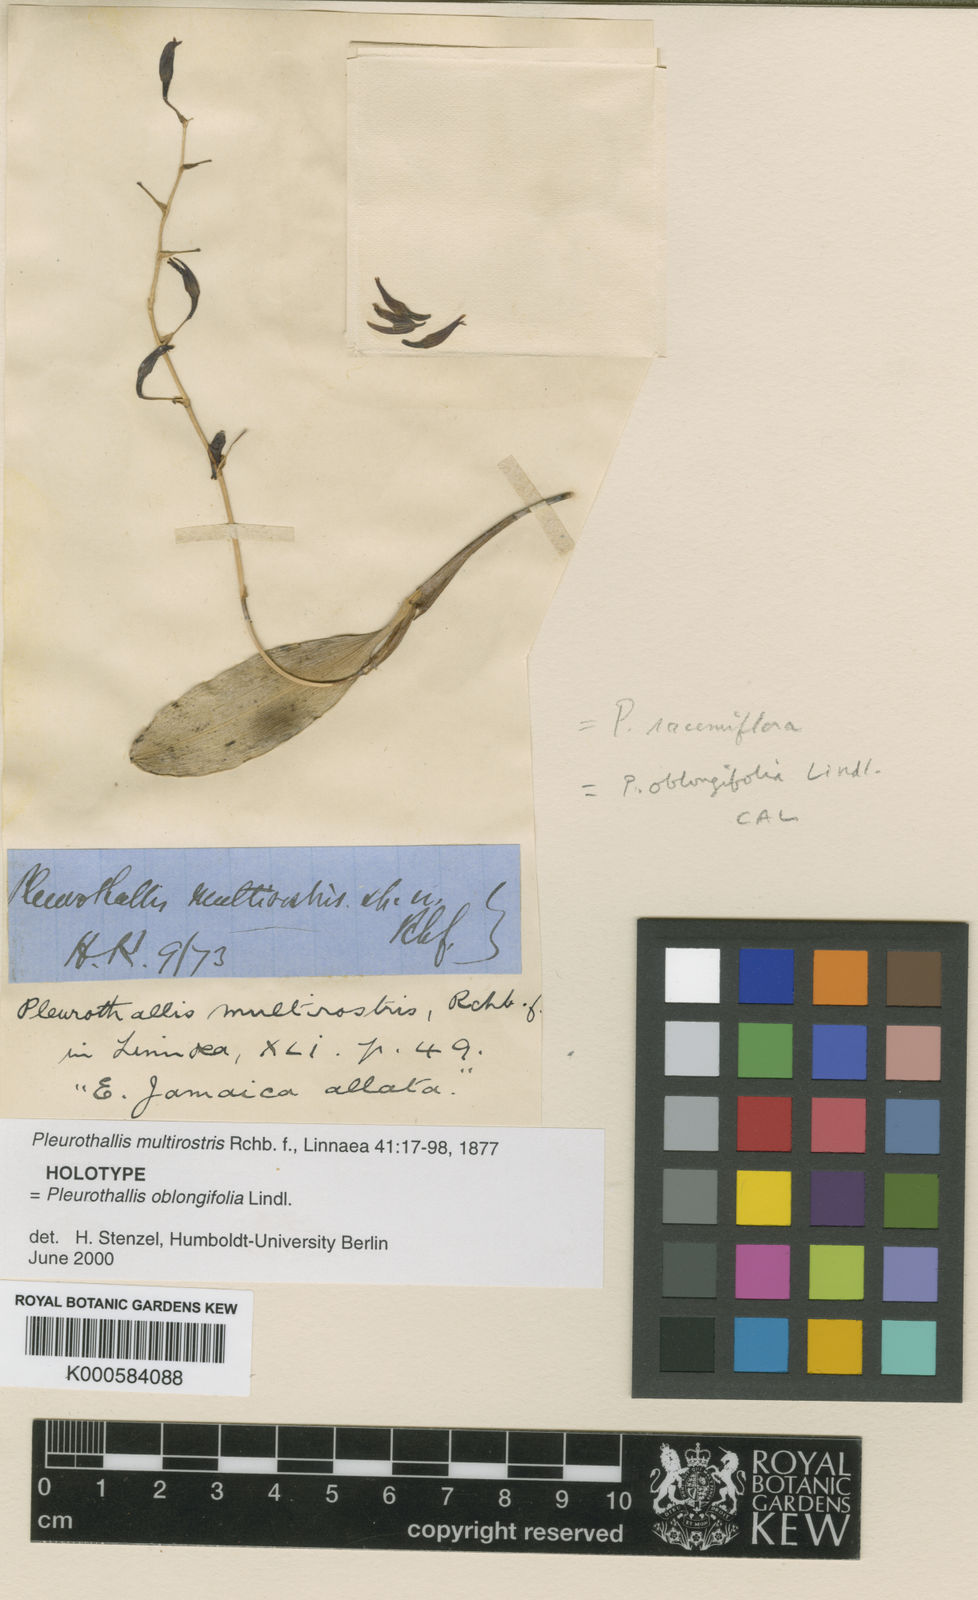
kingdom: Plantae
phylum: Tracheophyta
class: Liliopsida
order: Asparagales
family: Orchidaceae
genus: Stelis
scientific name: Stelis multirostris
